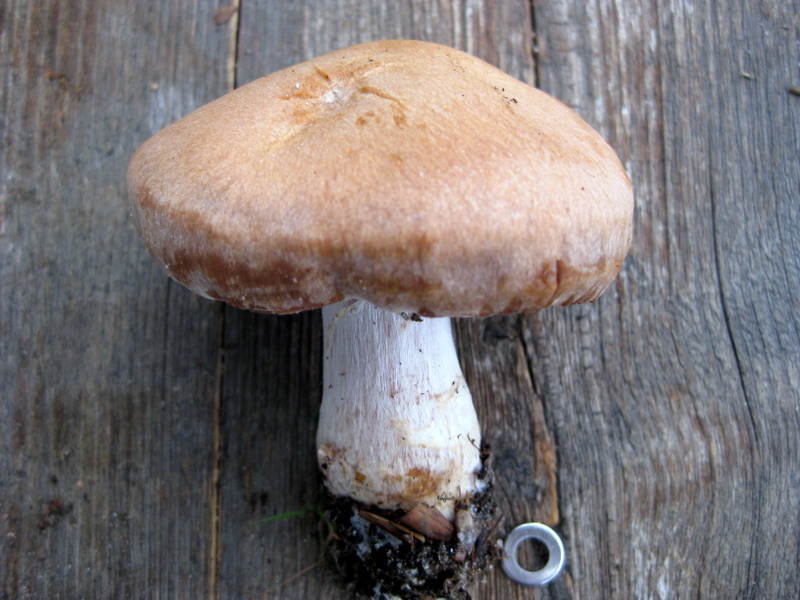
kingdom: Fungi
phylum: Basidiomycota
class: Agaricomycetes
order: Agaricales
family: Cortinariaceae
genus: Cortinarius
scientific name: Cortinarius bivelus
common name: orangebrun slørhat
